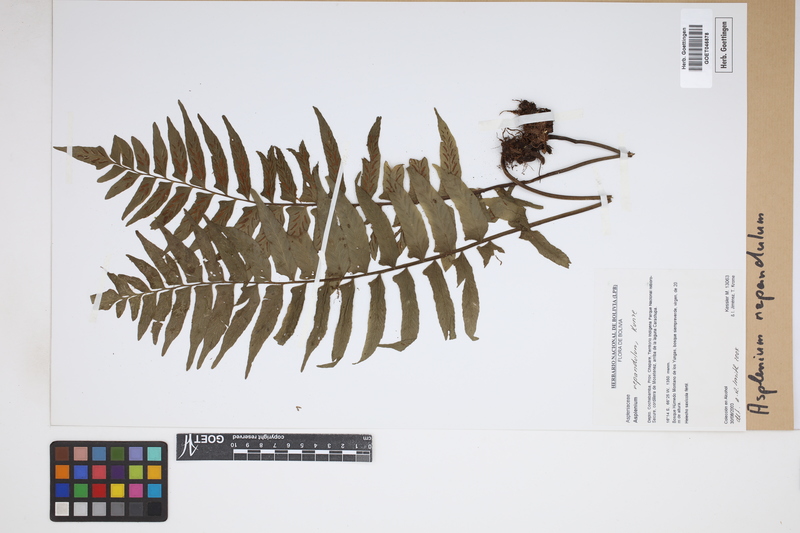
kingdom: Plantae
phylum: Tracheophyta
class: Polypodiopsida
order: Polypodiales
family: Aspleniaceae
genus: Hymenasplenium
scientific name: Hymenasplenium repandulum
